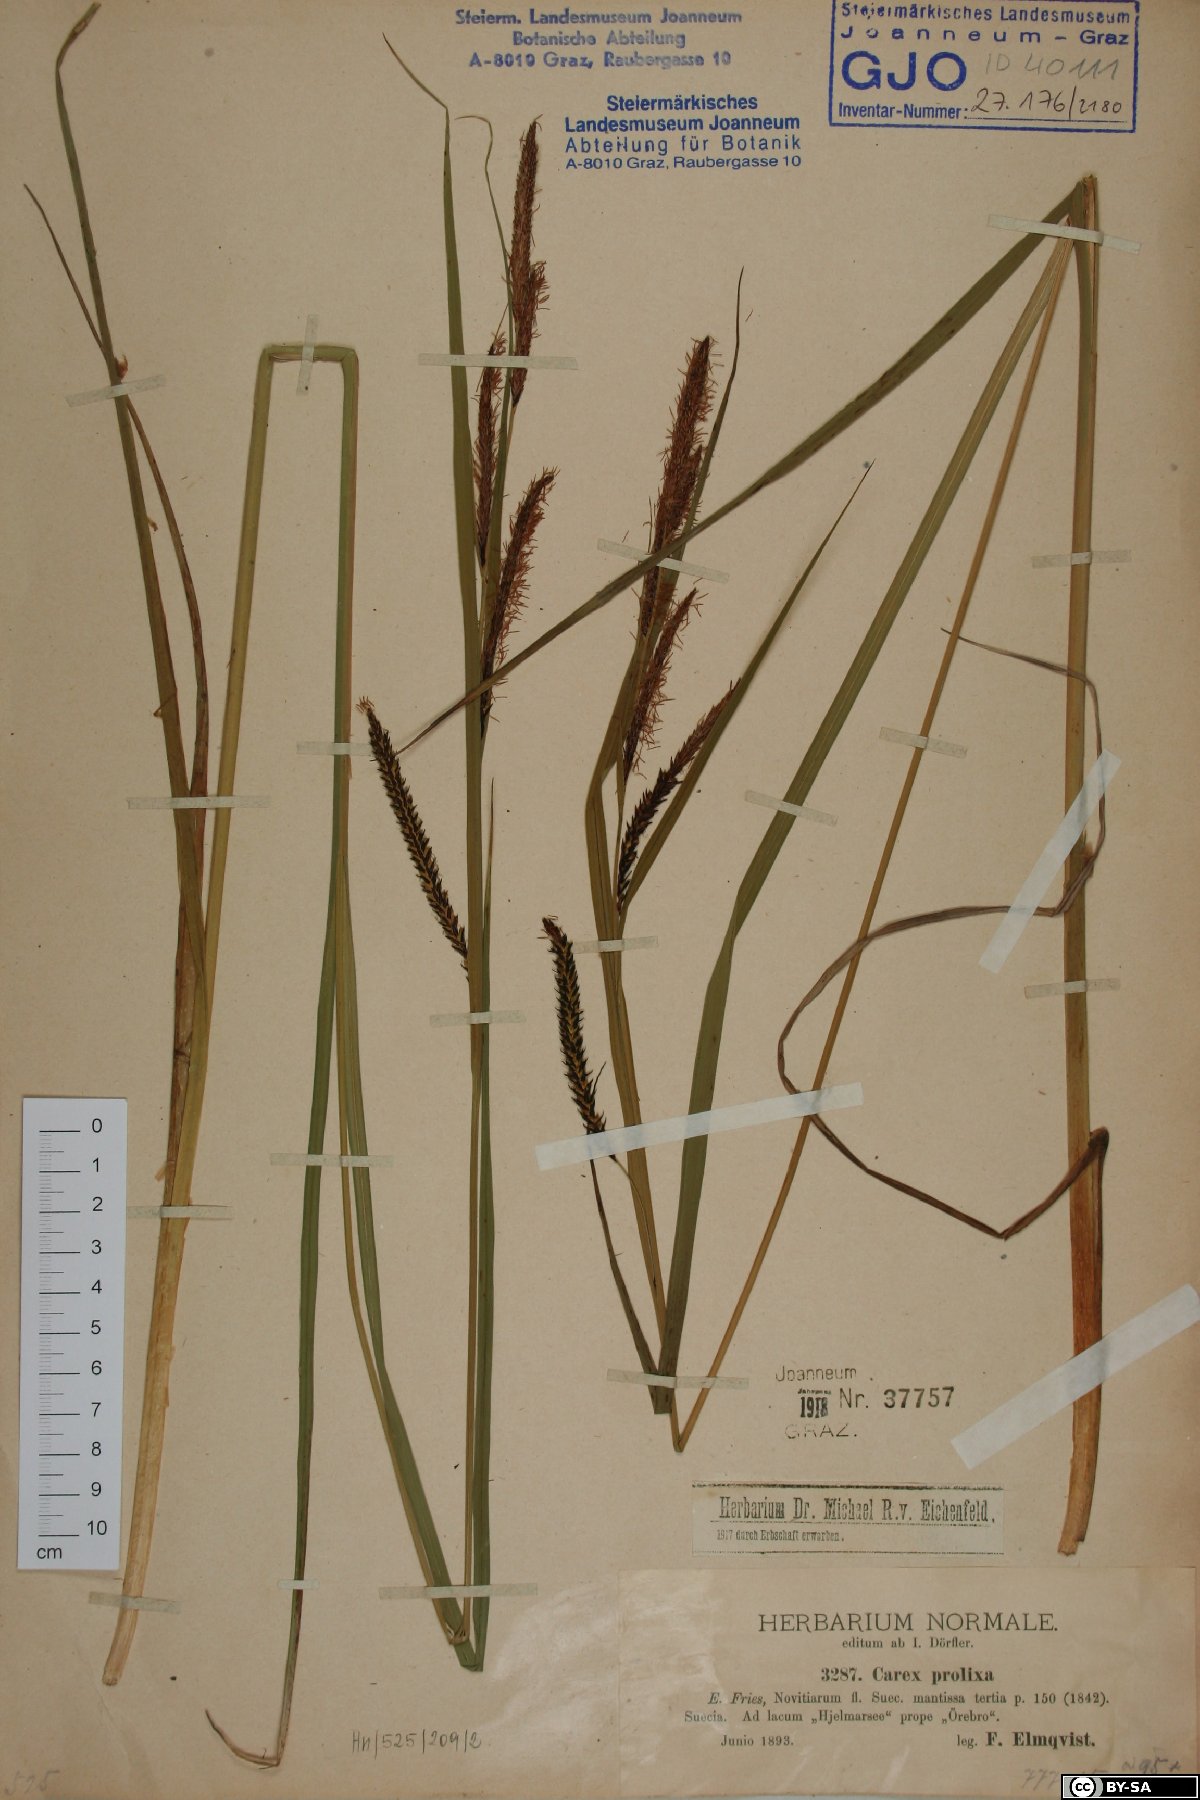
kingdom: Plantae
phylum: Tracheophyta
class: Liliopsida
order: Poales
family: Cyperaceae
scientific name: Cyperaceae
